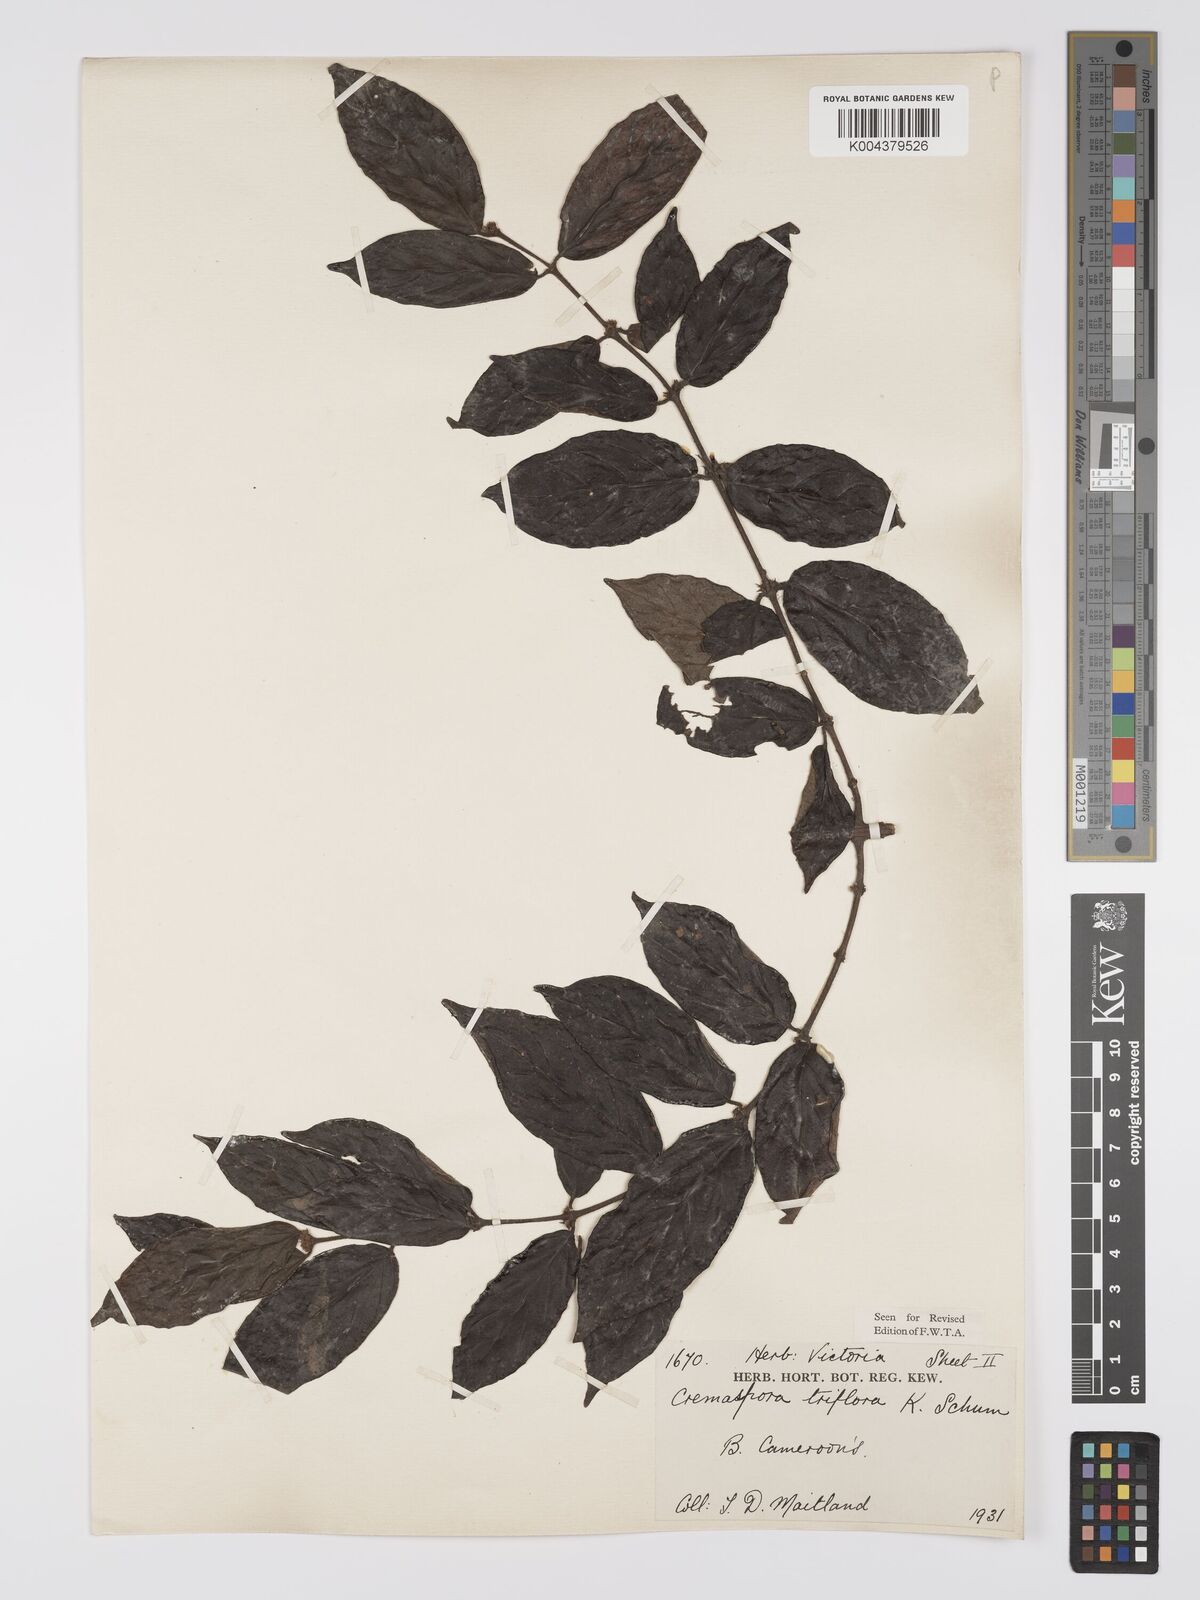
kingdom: Plantae
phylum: Tracheophyta
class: Magnoliopsida
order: Gentianales
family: Rubiaceae
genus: Cremaspora
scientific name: Cremaspora triflora
